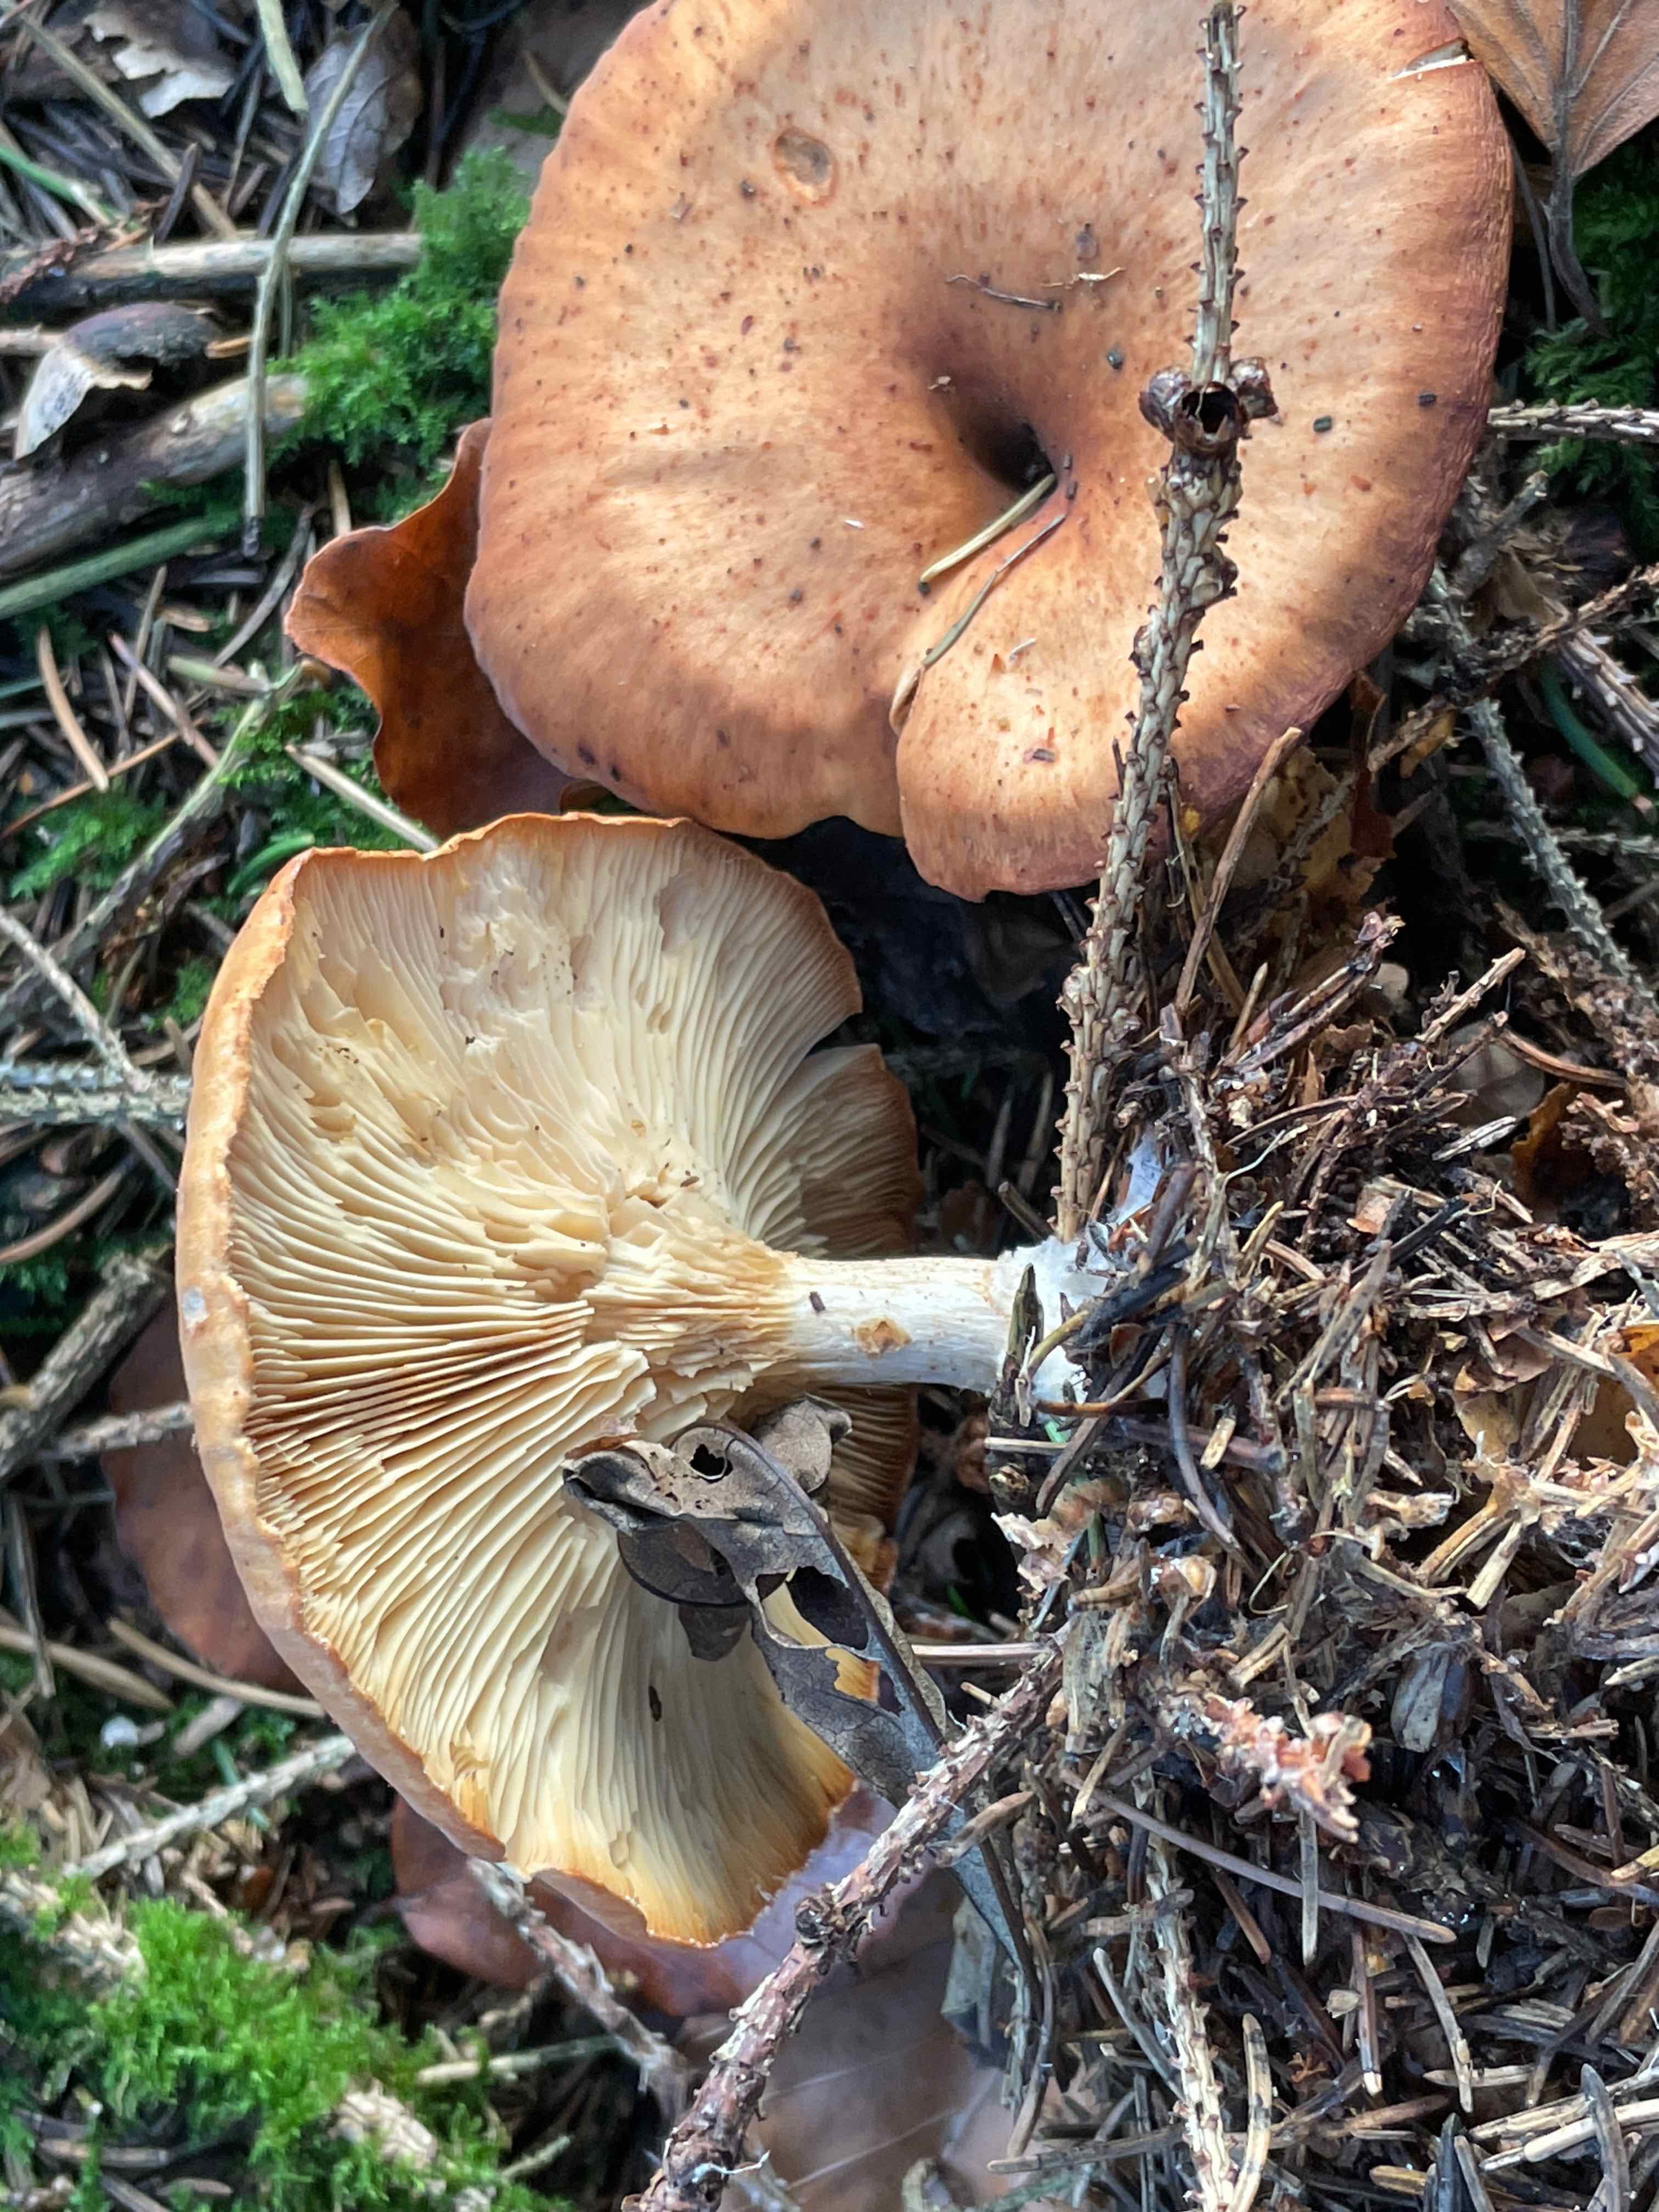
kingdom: Fungi
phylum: Basidiomycota
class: Agaricomycetes
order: Agaricales
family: Tricholomataceae
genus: Paralepista
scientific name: Paralepista flaccida
